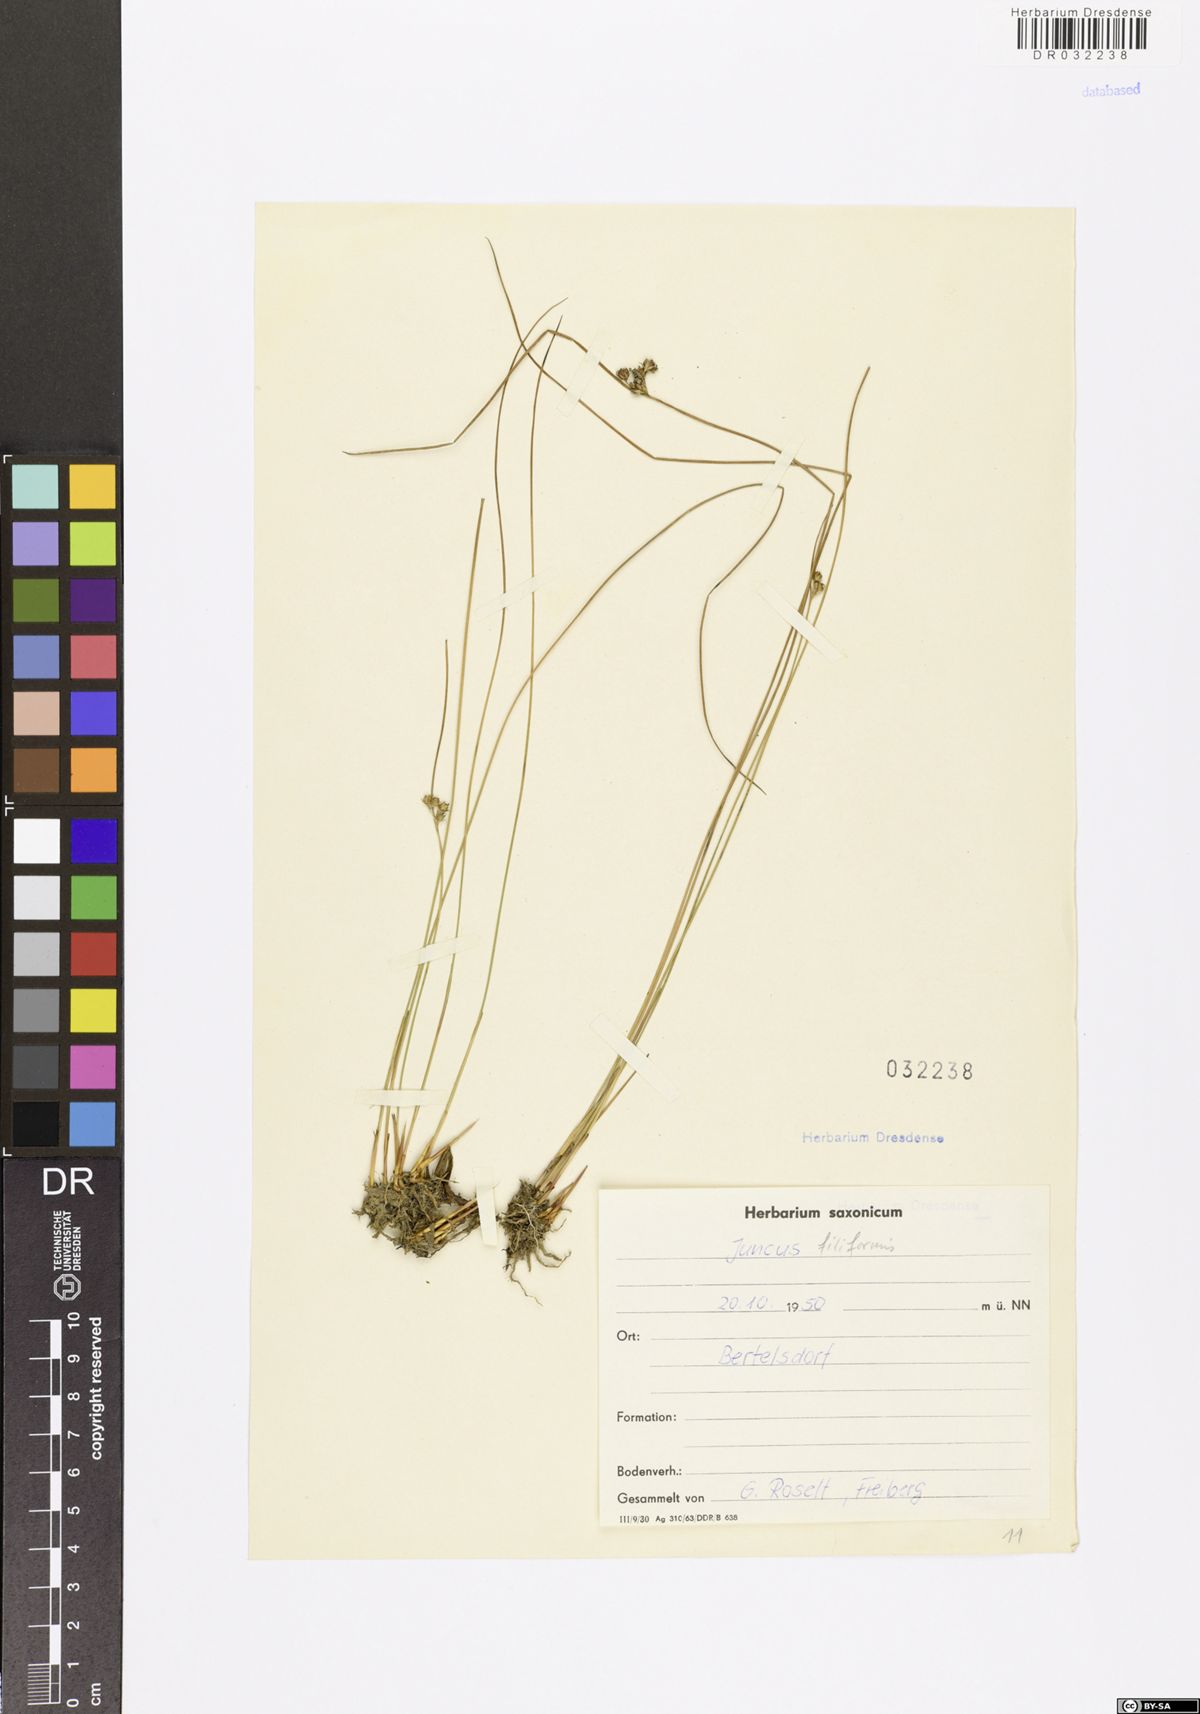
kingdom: Plantae
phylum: Tracheophyta
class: Liliopsida
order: Poales
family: Juncaceae
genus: Juncus
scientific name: Juncus inflexus
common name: Hard rush
